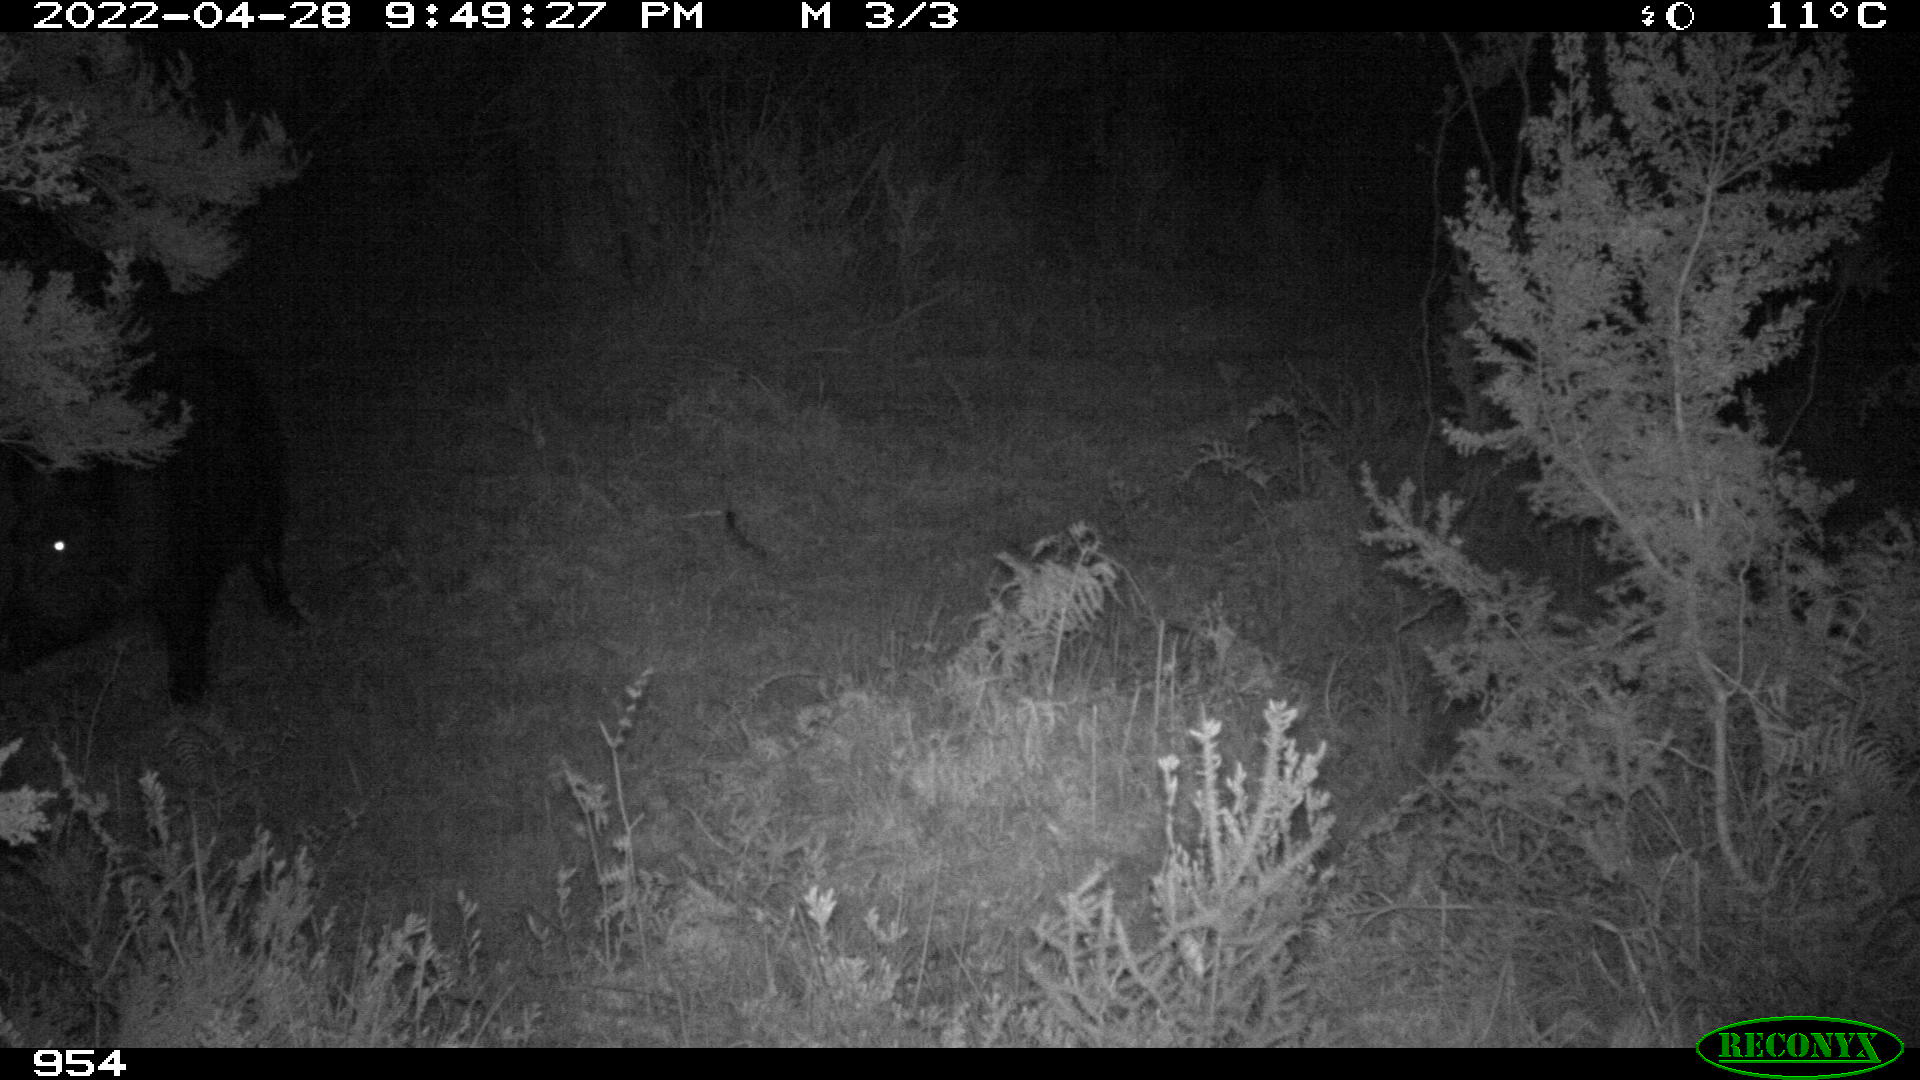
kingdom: Animalia
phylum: Chordata
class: Mammalia
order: Artiodactyla
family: Suidae
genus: Sus
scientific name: Sus scrofa
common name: Wild boar
